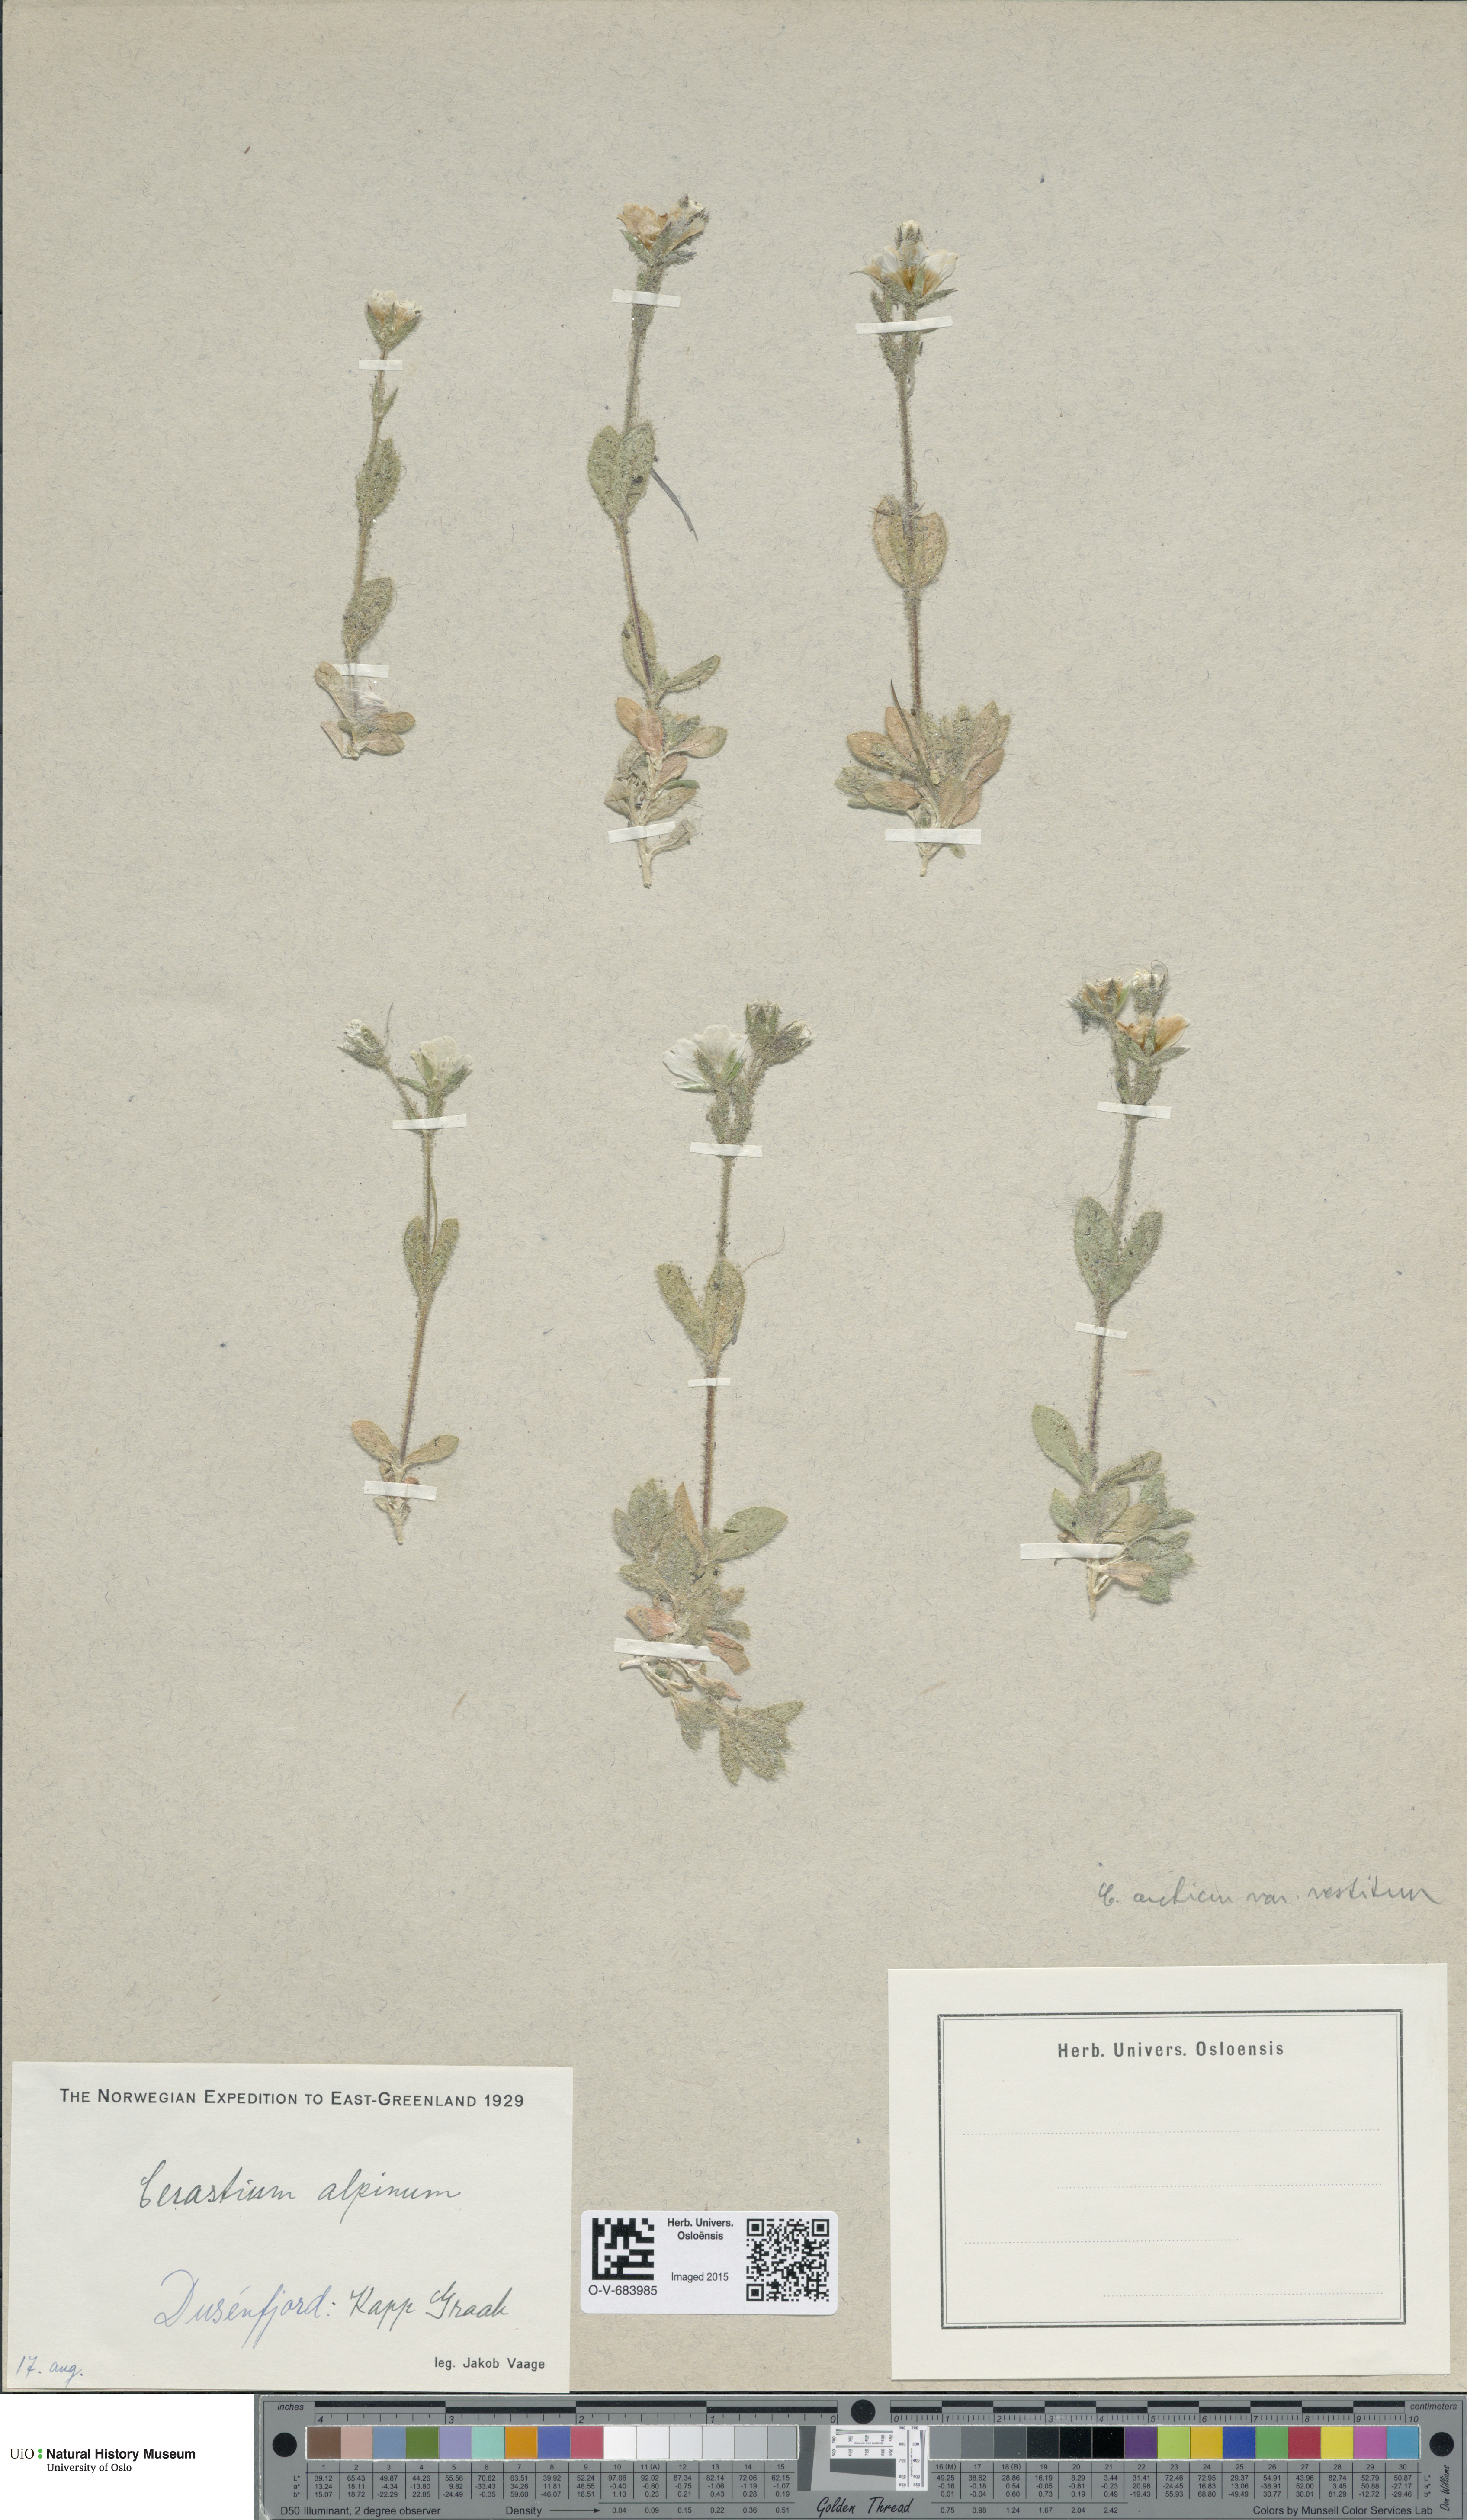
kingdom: Plantae
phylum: Tracheophyta
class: Magnoliopsida
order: Caryophyllales
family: Caryophyllaceae
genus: Cerastium
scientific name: Cerastium arcticum
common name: Arctic mouse-ear
